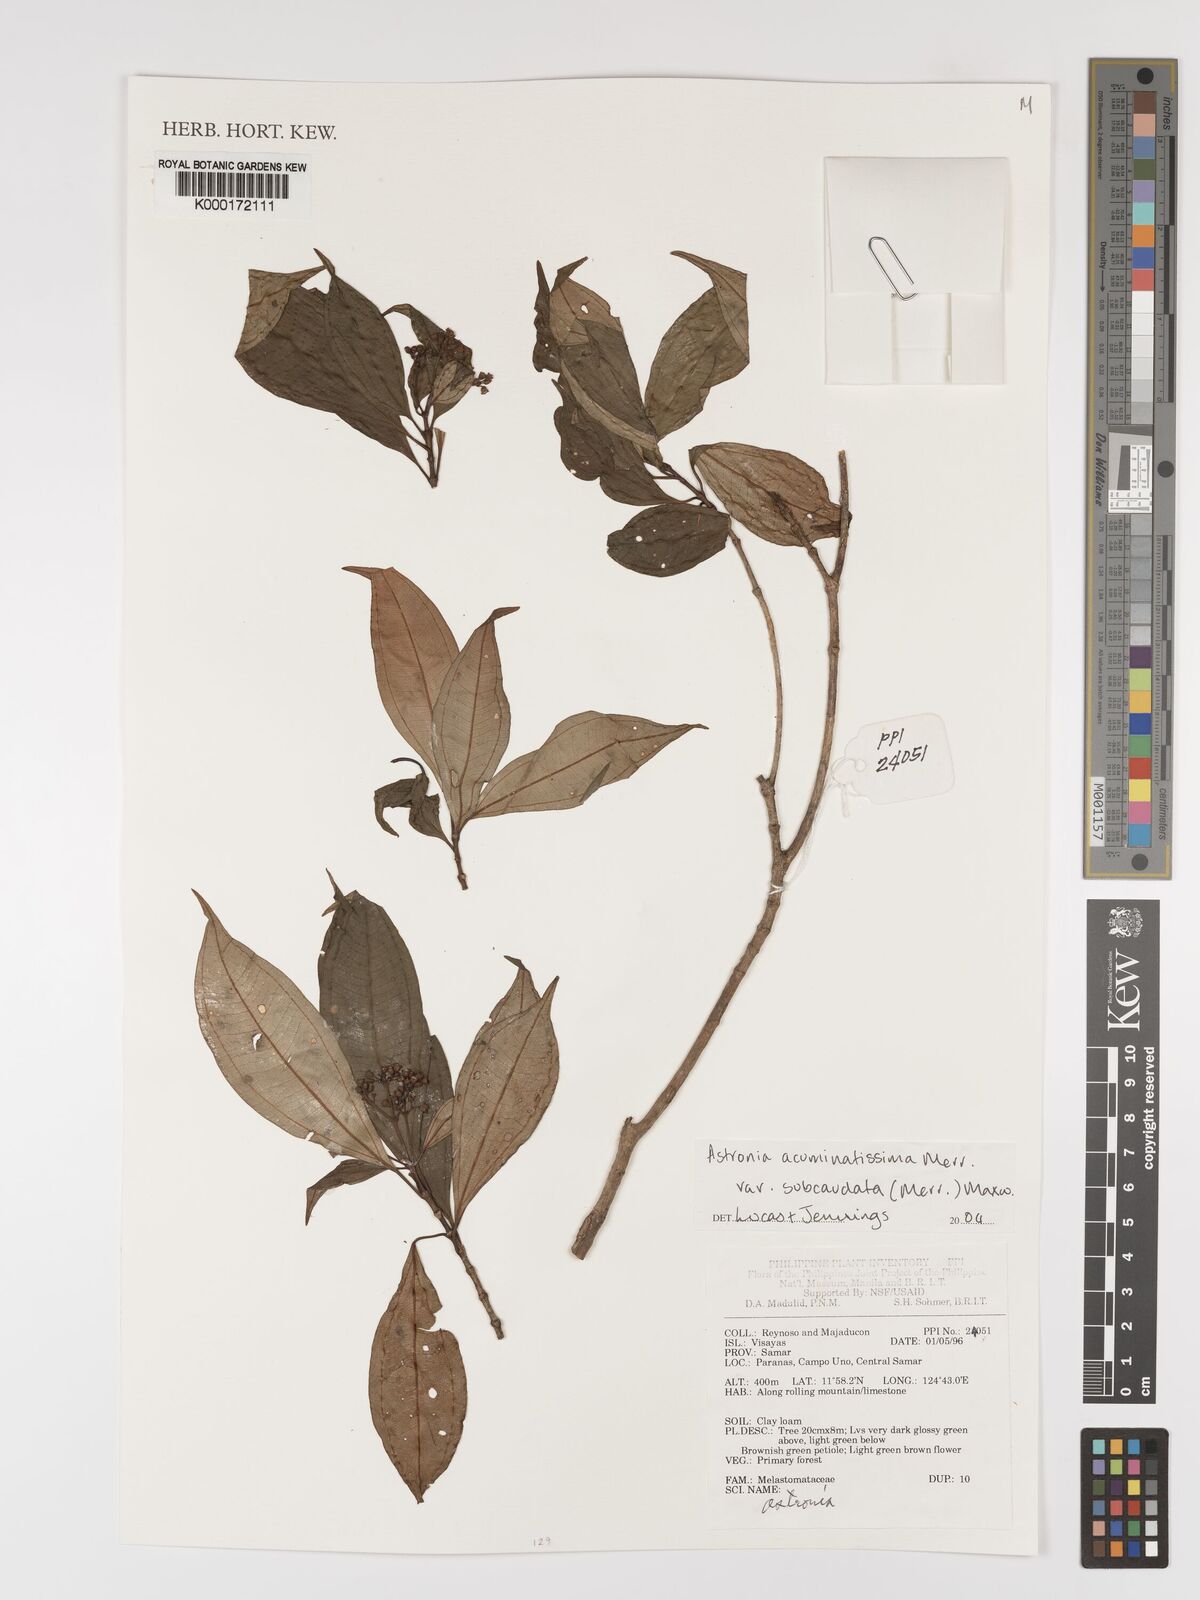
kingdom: Plantae
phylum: Tracheophyta
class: Magnoliopsida
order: Myrtales
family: Melastomataceae
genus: Astronia
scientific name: Astronia acuminatissima
